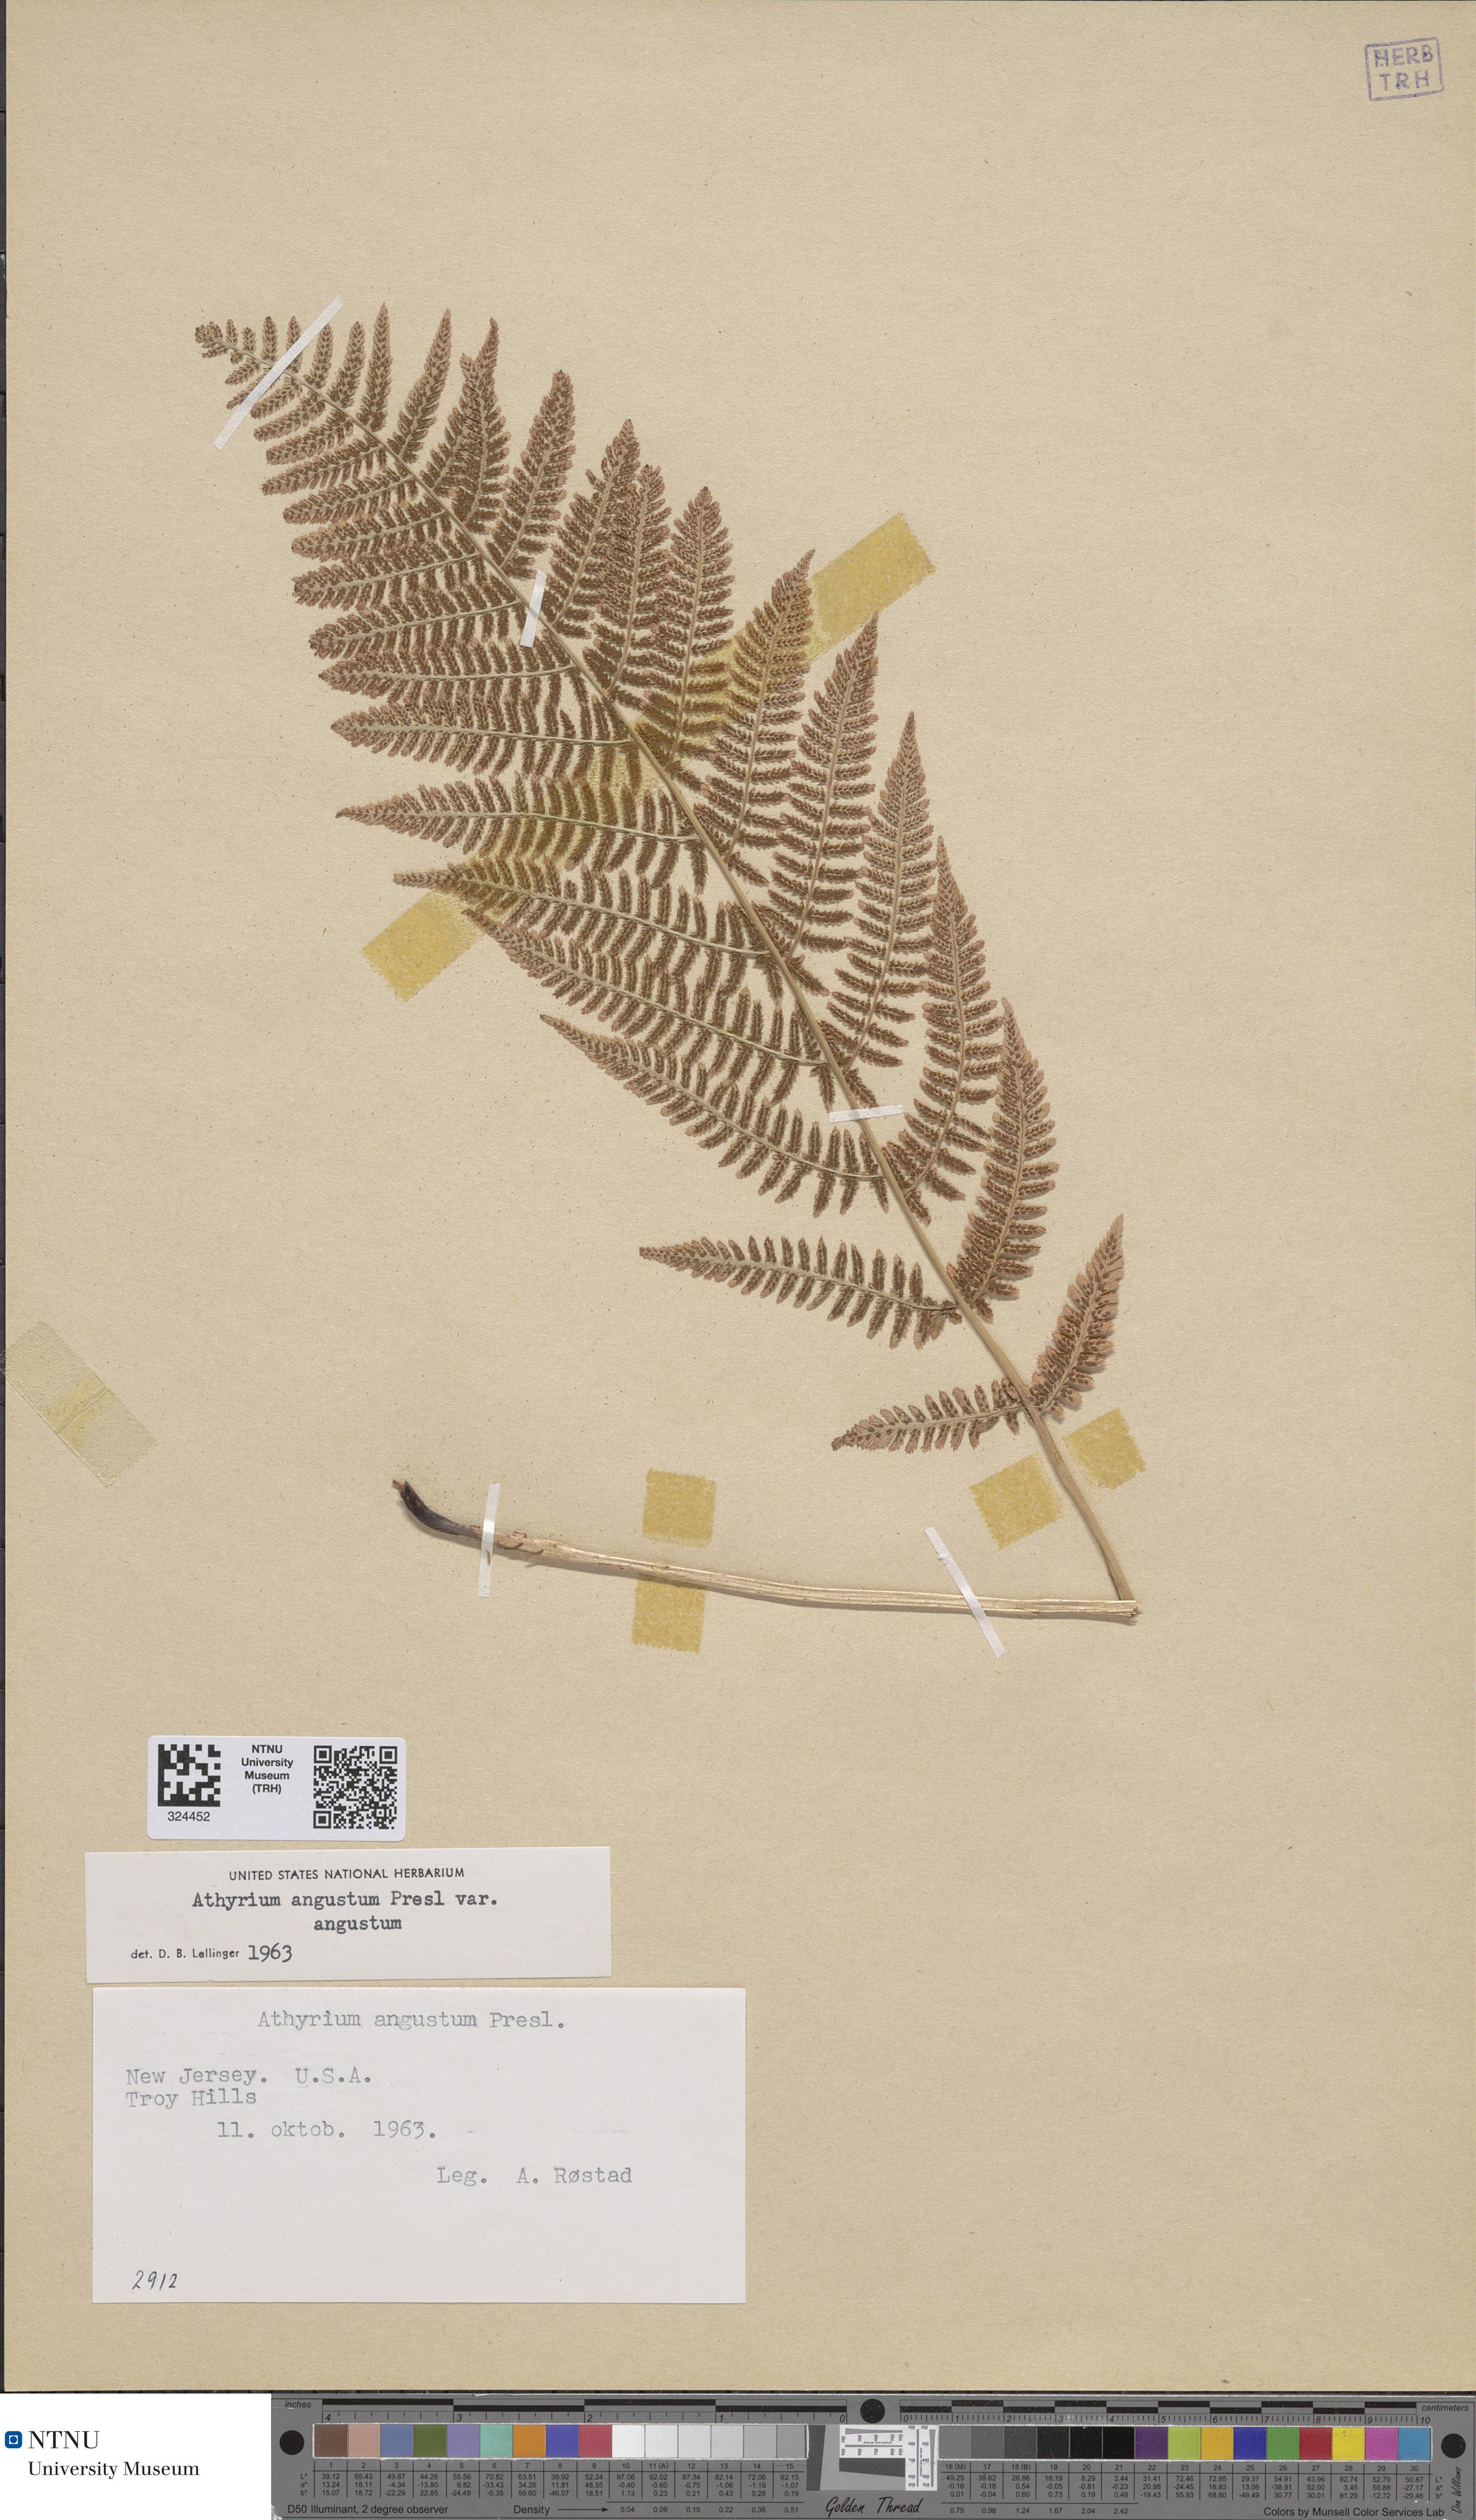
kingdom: Plantae
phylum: Tracheophyta
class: Polypodiopsida
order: Polypodiales
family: Athyriaceae
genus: Athyrium
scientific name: Athyrium angustum
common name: Northern lady fern
